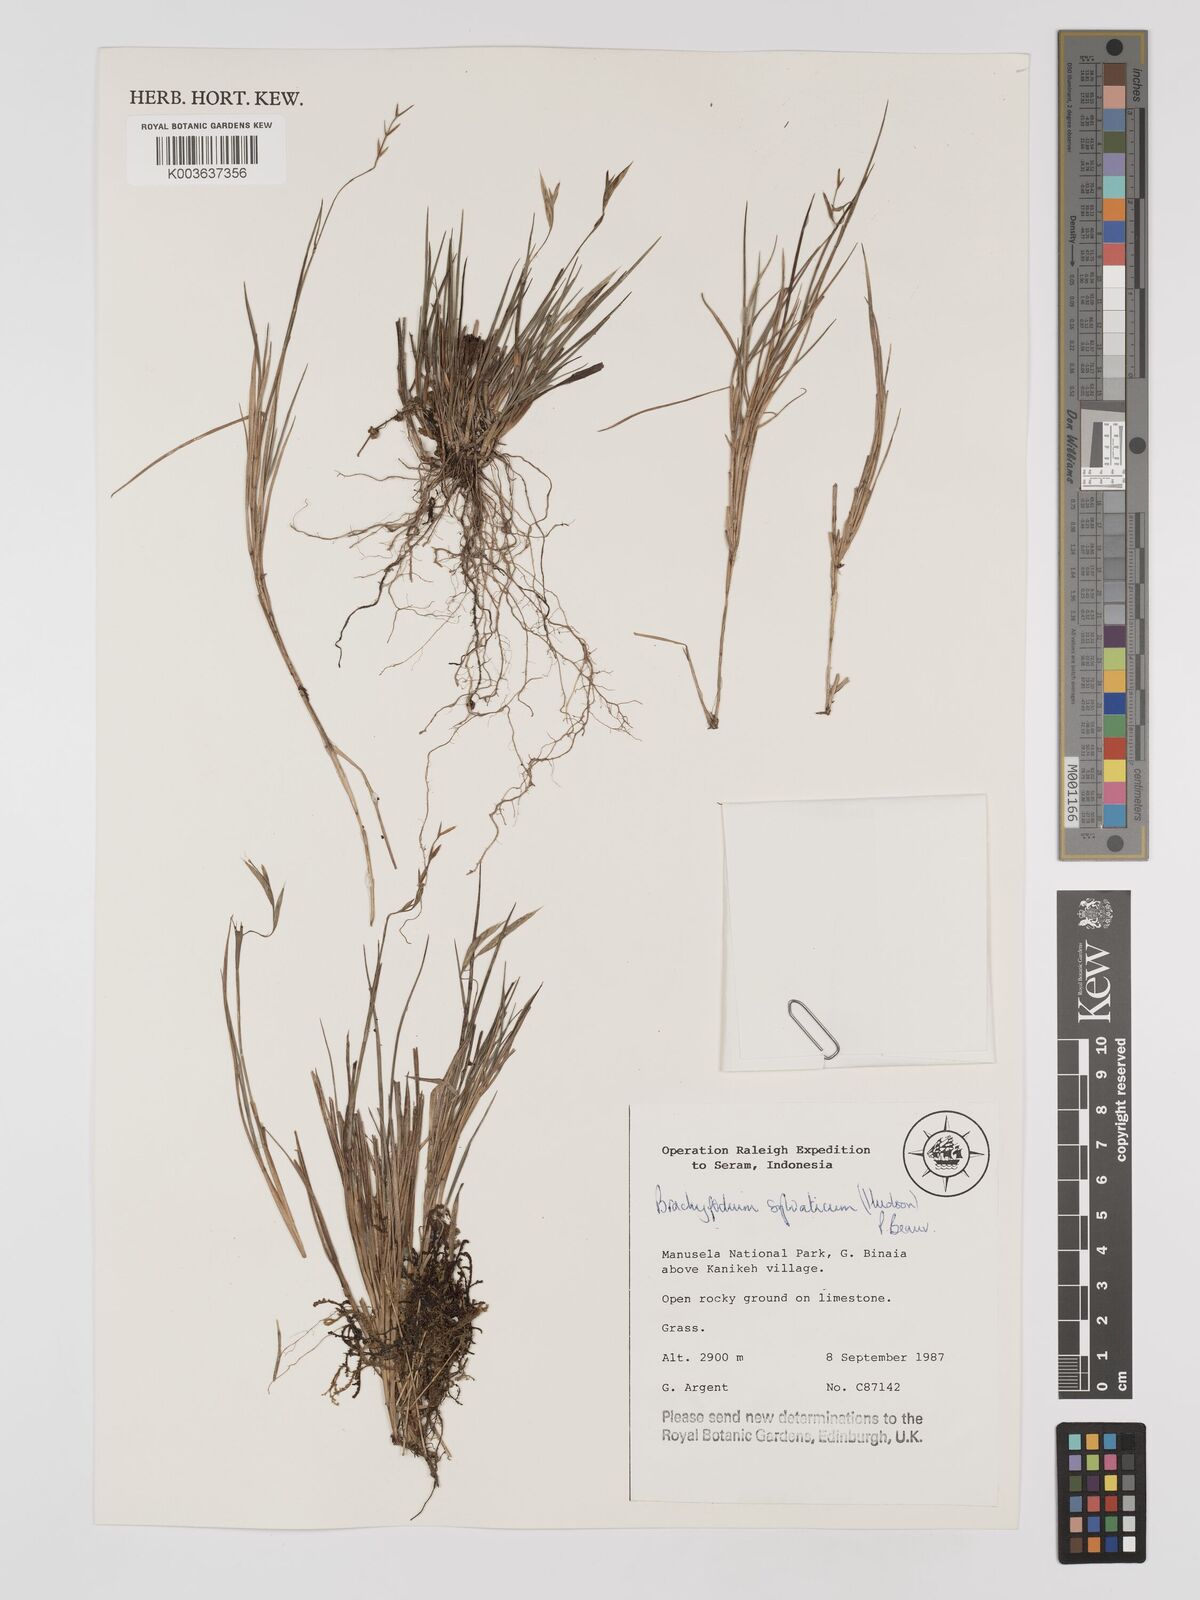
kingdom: Plantae
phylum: Tracheophyta
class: Liliopsida
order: Poales
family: Poaceae
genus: Brachypodium
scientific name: Brachypodium sylvaticum
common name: False-brome
